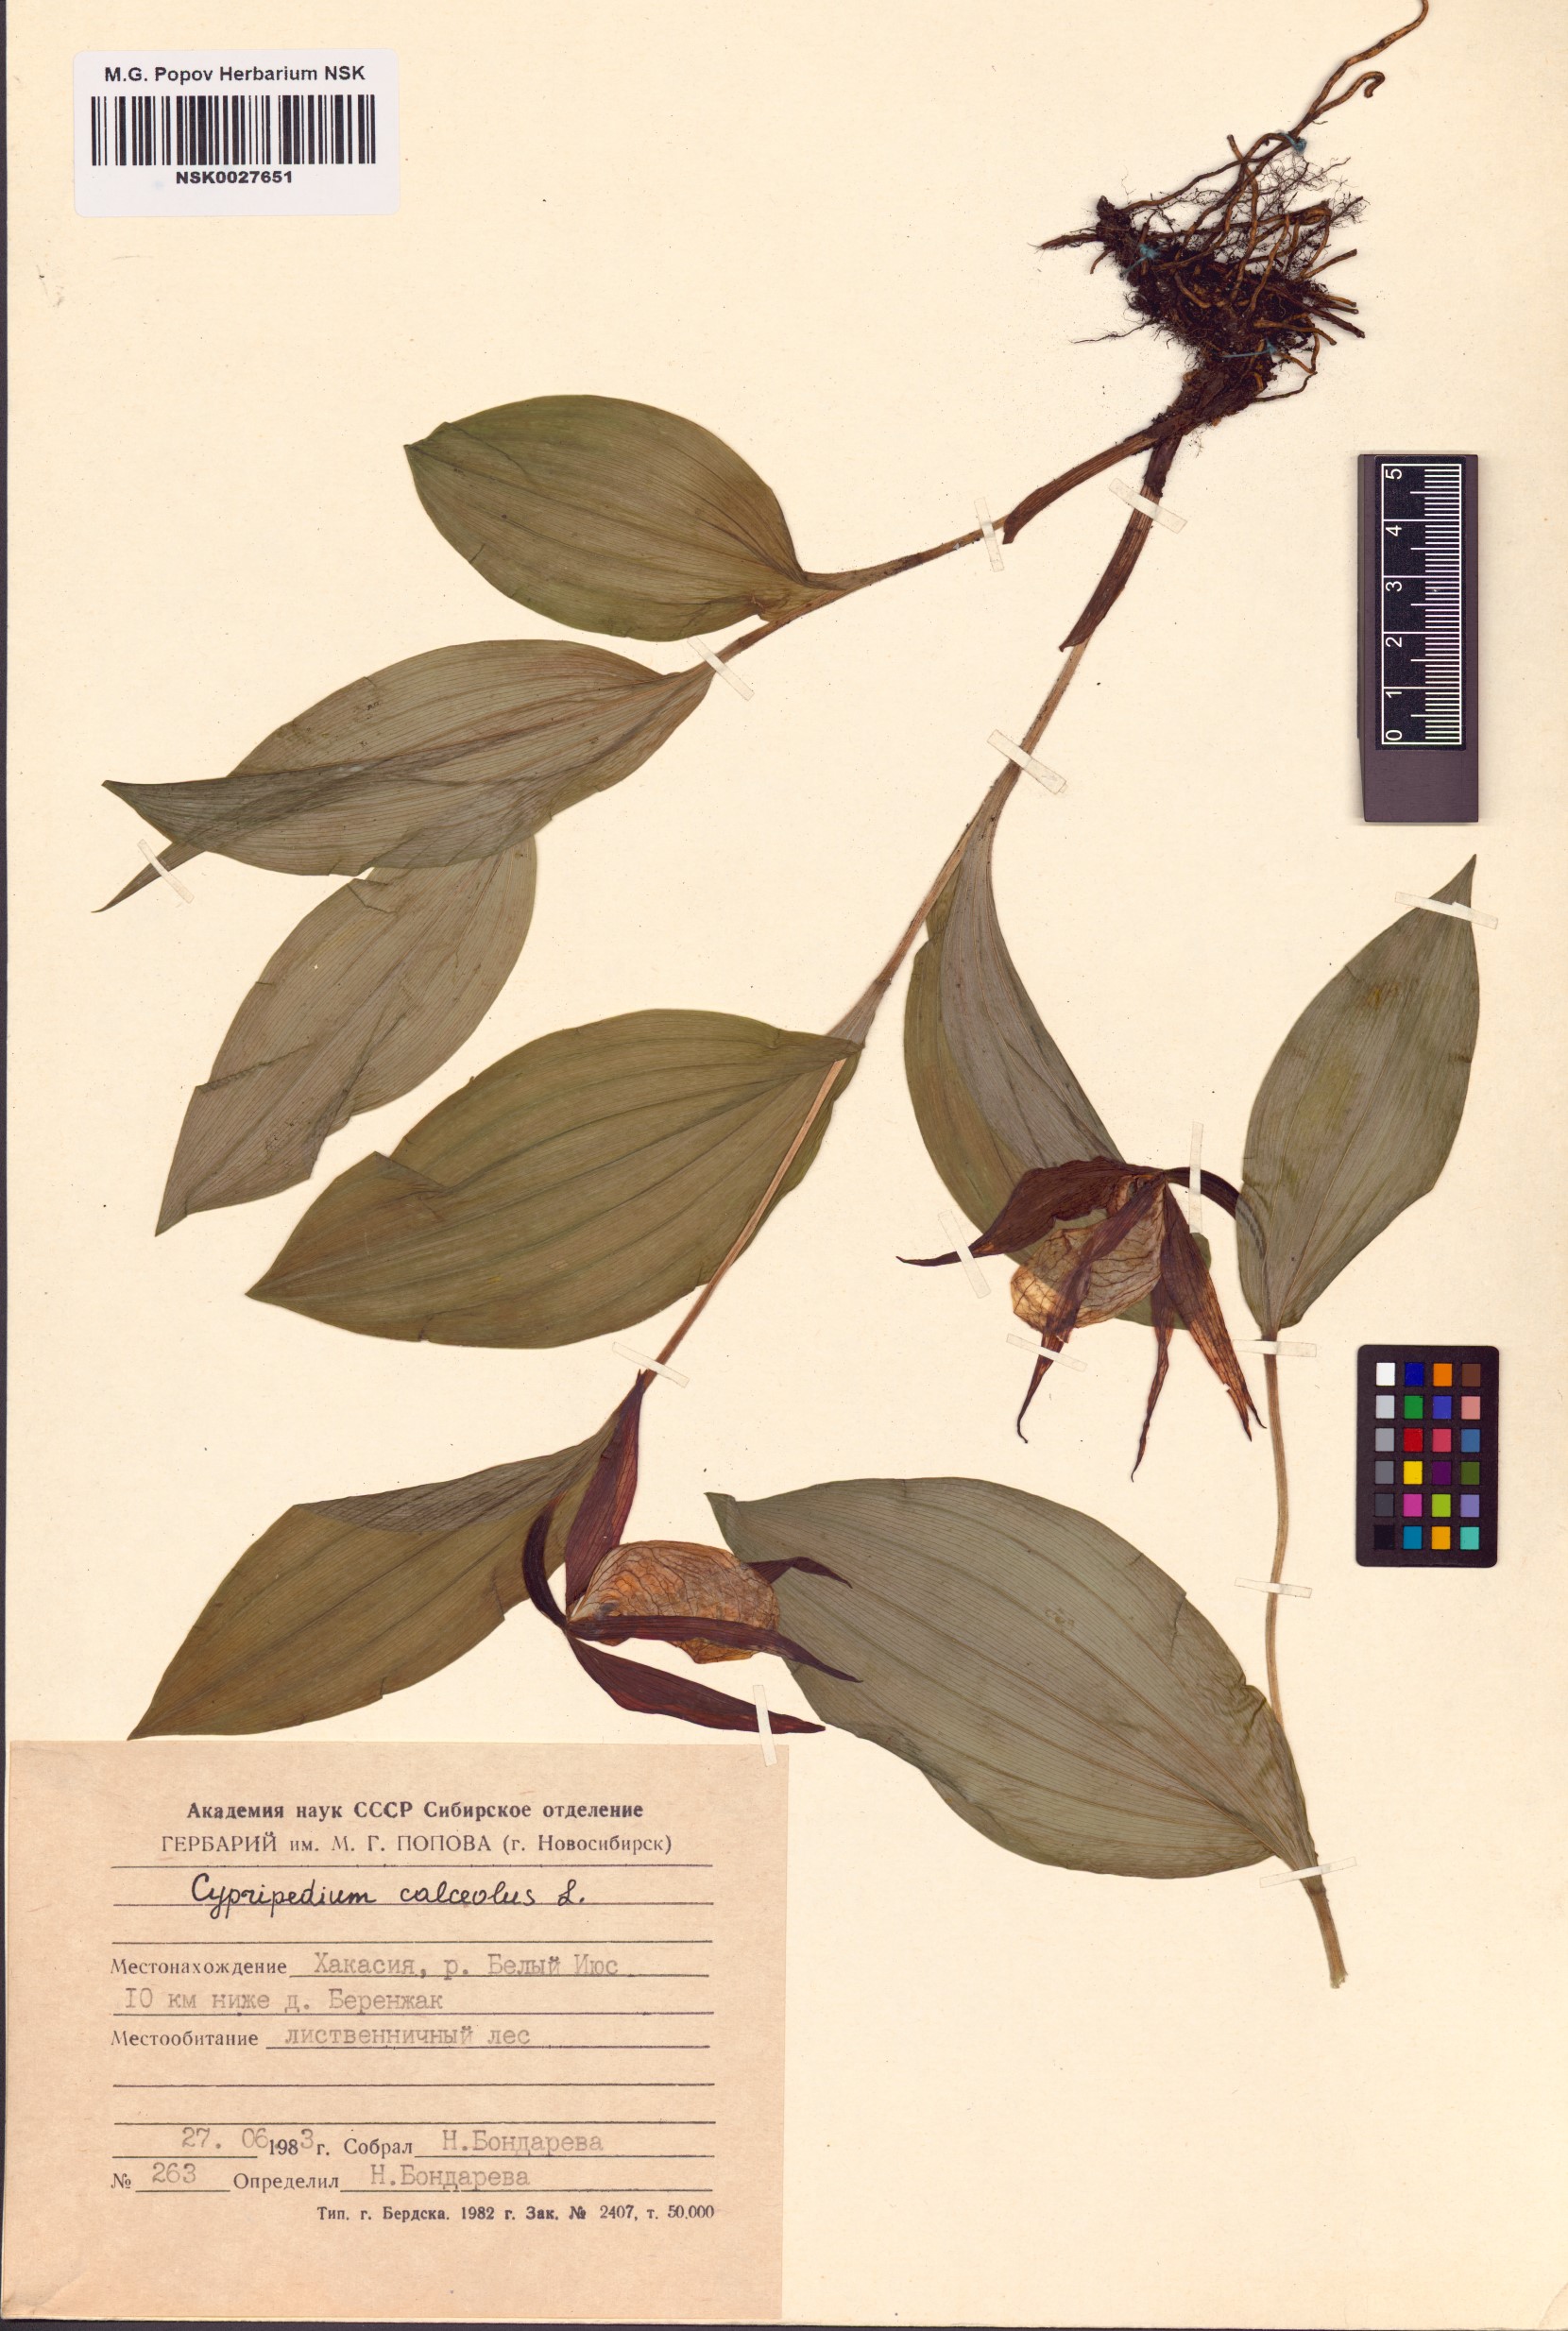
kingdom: Plantae
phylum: Tracheophyta
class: Liliopsida
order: Asparagales
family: Orchidaceae
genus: Cypripedium
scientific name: Cypripedium calceolus
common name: Lady's-slipper
